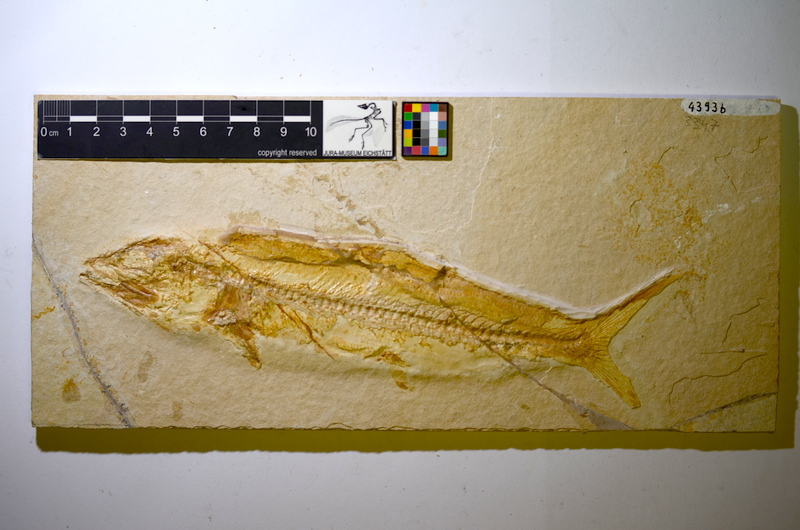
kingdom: Animalia
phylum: Chordata
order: Elopiformes
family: Elopidae
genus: Elopsomolos
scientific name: Elopsomolos frickhingeri
